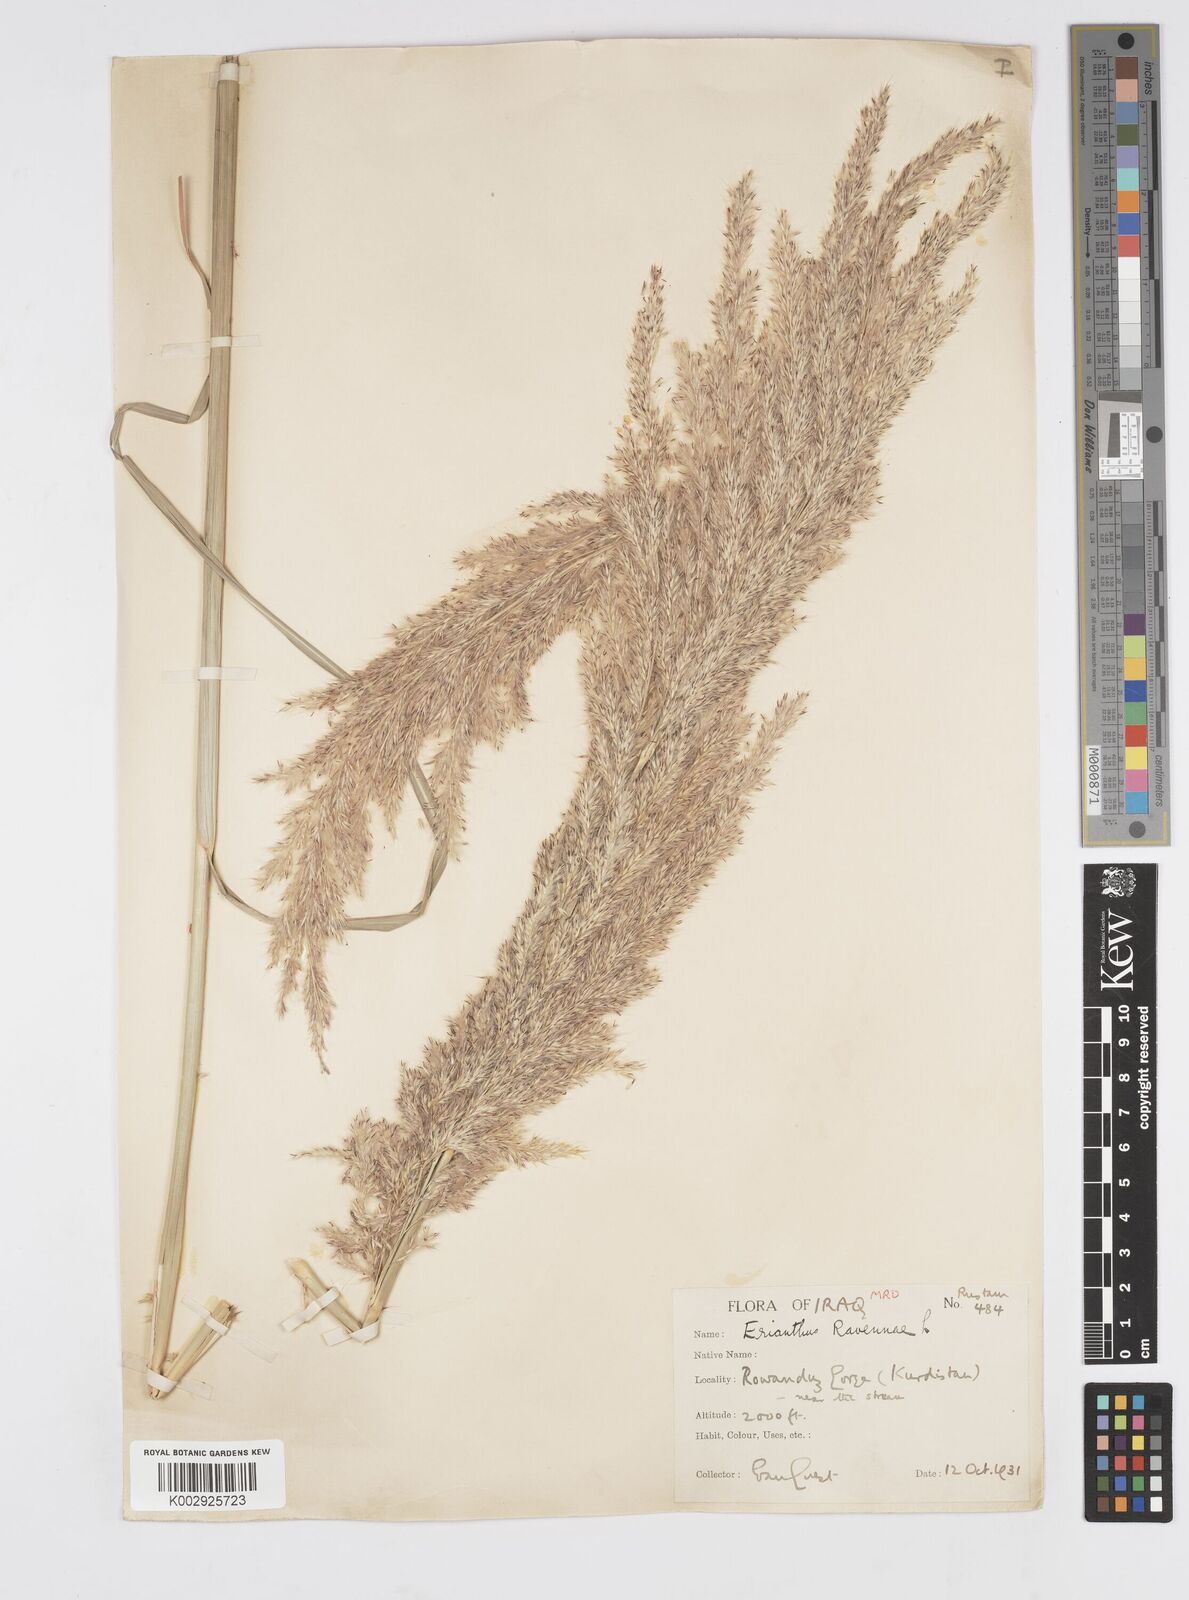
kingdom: Plantae
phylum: Tracheophyta
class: Liliopsida
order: Poales
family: Poaceae
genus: Tripidium
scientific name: Tripidium ravennae
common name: Ravenna grass
